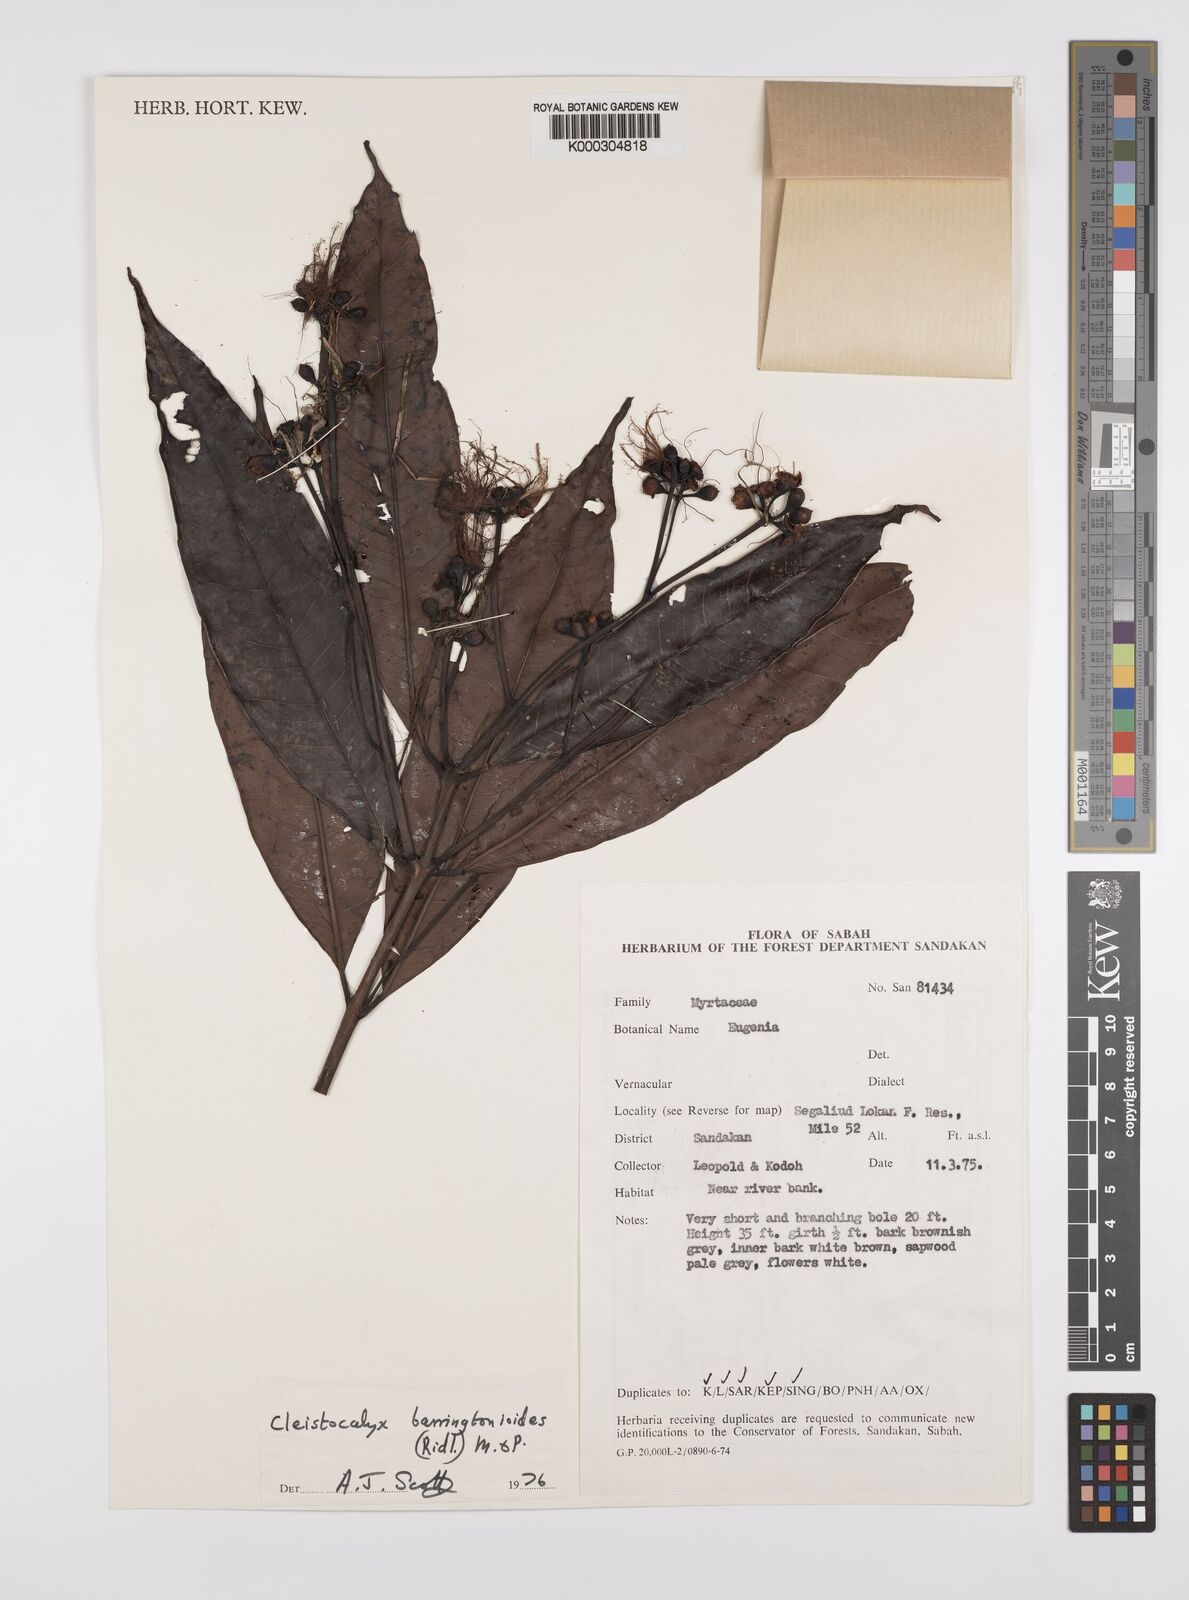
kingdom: Plantae
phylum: Tracheophyta
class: Magnoliopsida
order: Myrtales
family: Myrtaceae
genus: Syzygium
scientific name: Syzygium barringtonioides
